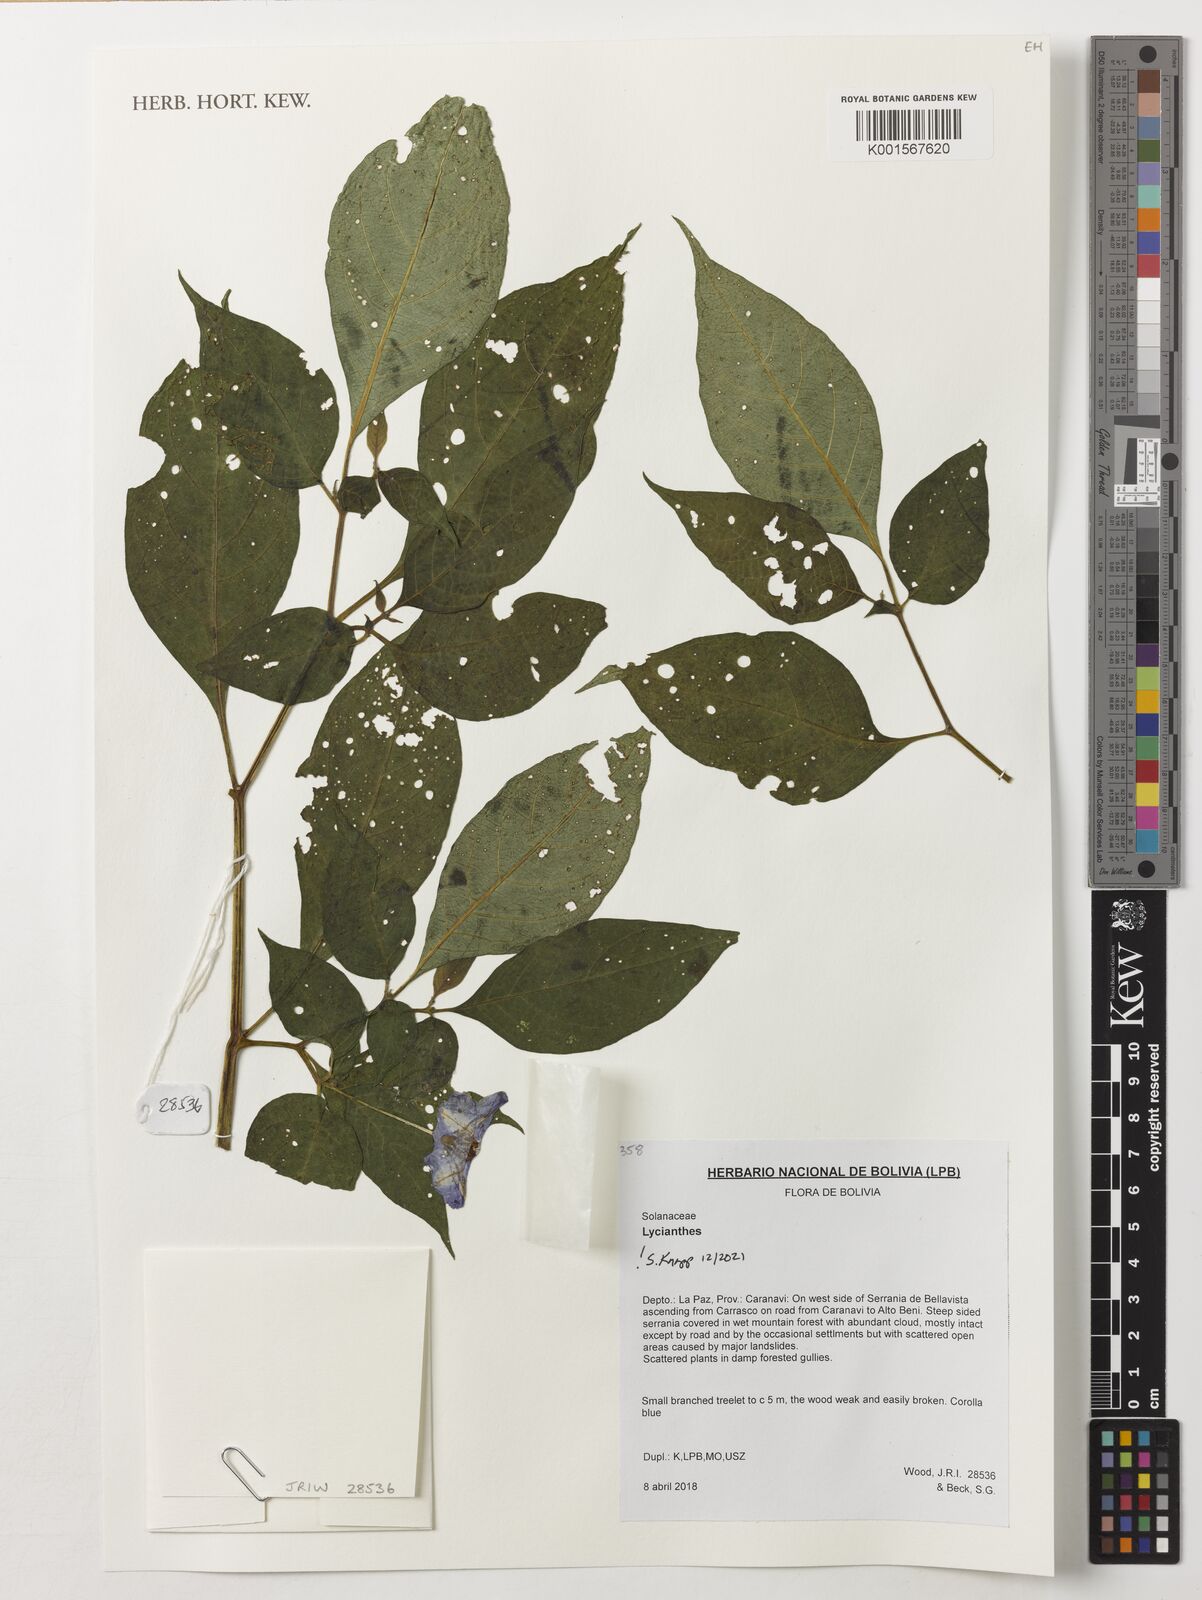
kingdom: Plantae
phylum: Tracheophyta
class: Magnoliopsida
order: Solanales
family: Solanaceae
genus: Lycianthes
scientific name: Lycianthes
